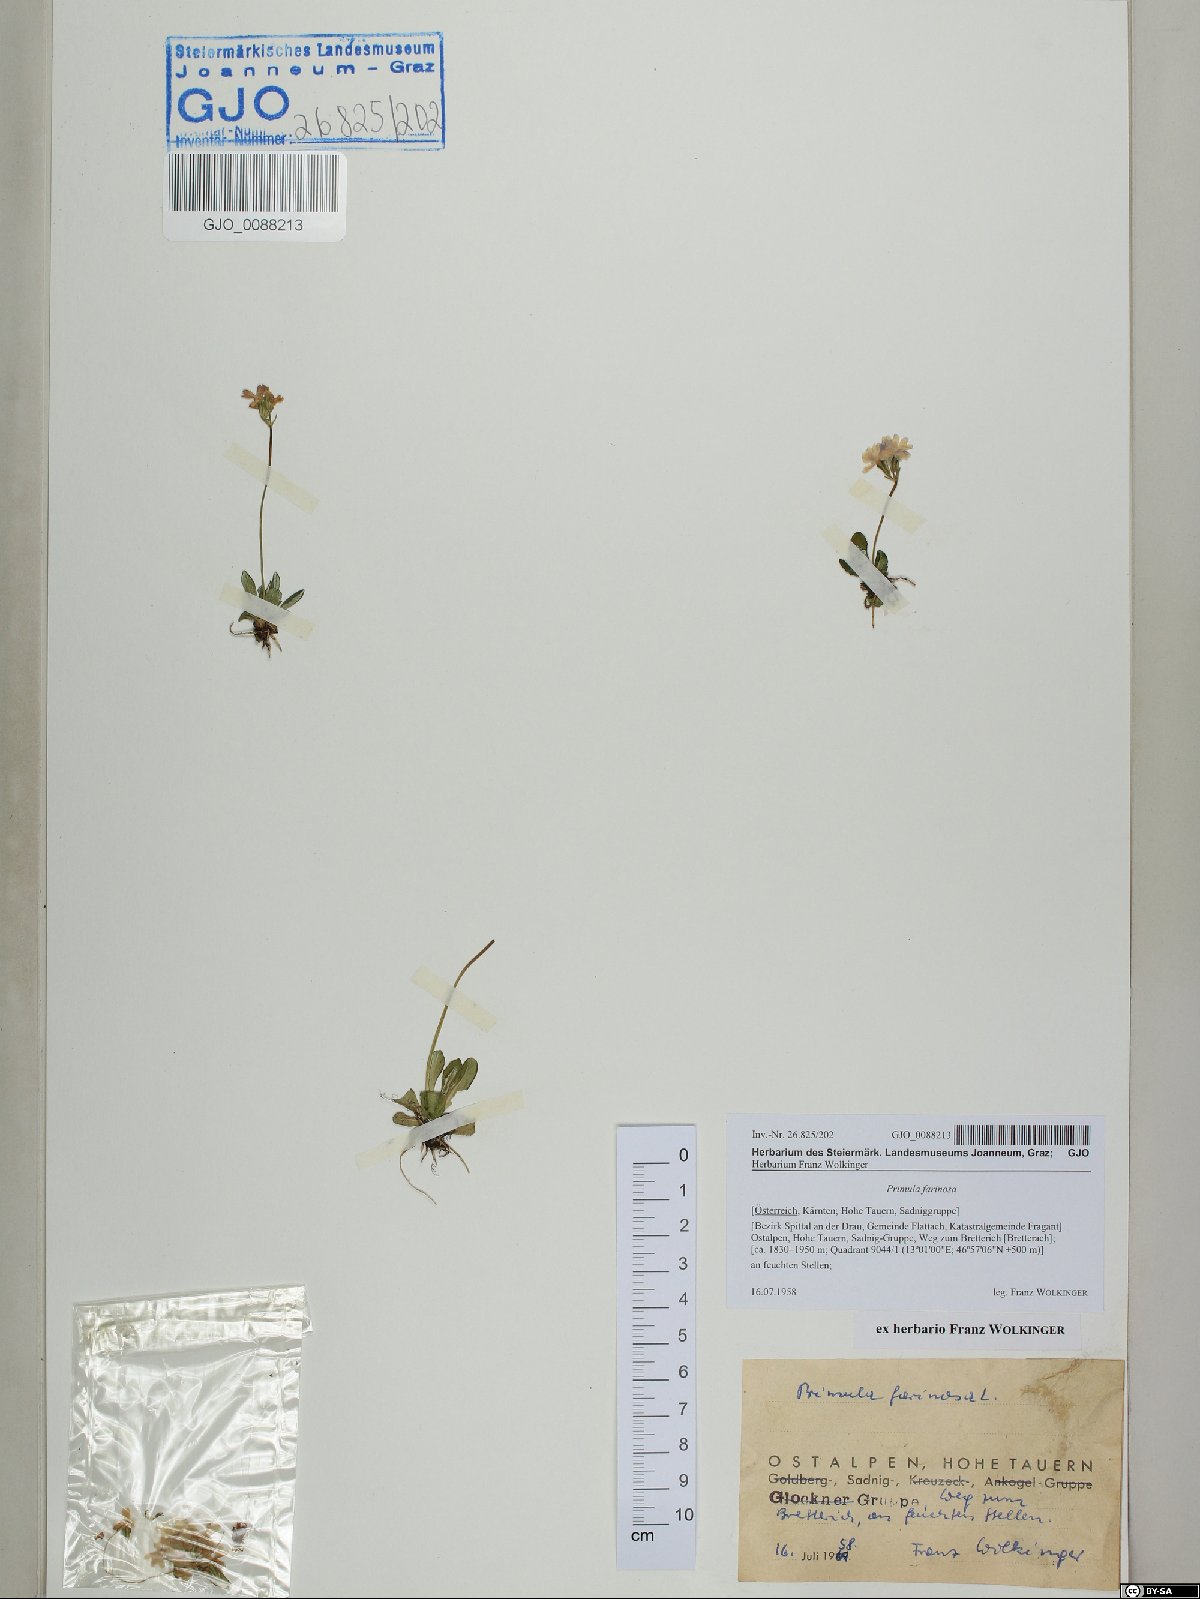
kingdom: Plantae
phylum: Tracheophyta
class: Magnoliopsida
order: Ericales
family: Primulaceae
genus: Primula
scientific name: Primula farinosa
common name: Bird's-eye primrose
